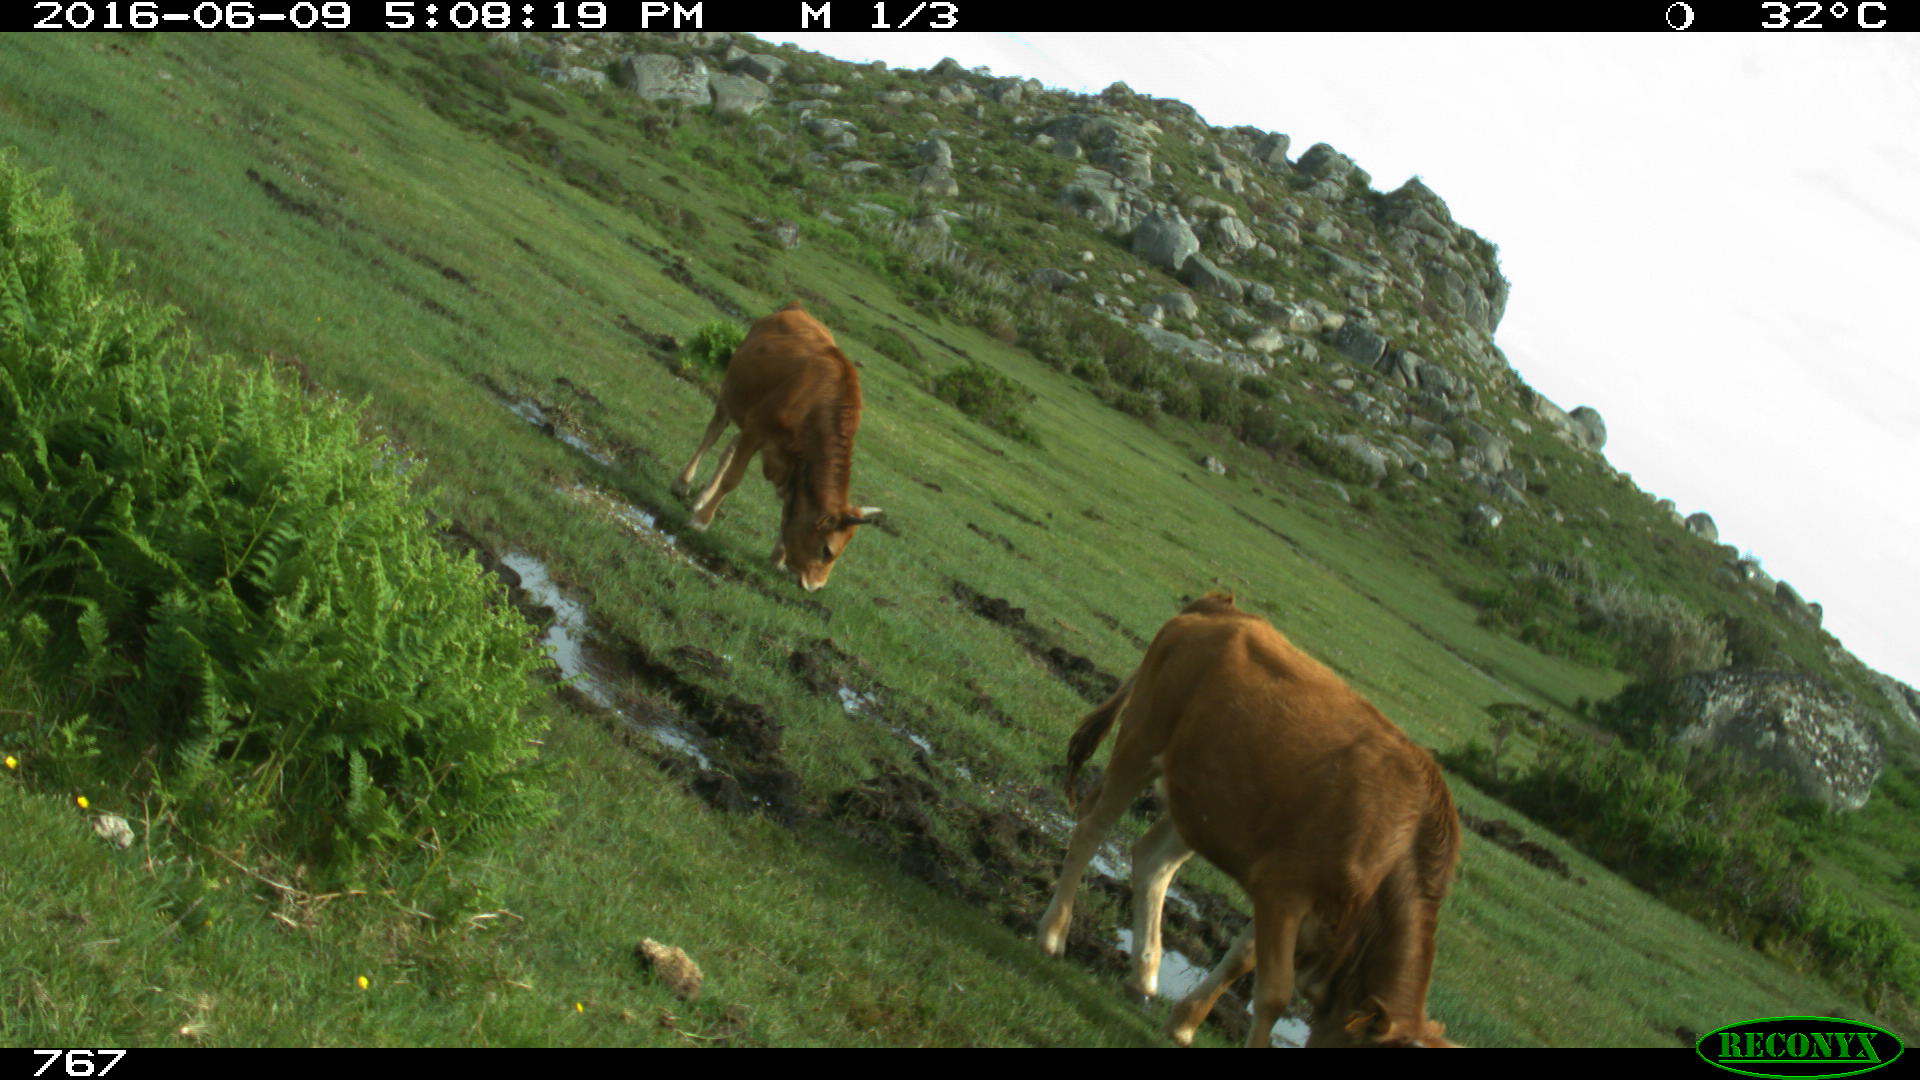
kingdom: Animalia
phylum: Chordata
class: Mammalia
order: Artiodactyla
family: Bovidae
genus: Bos
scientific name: Bos taurus
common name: Domesticated cattle
